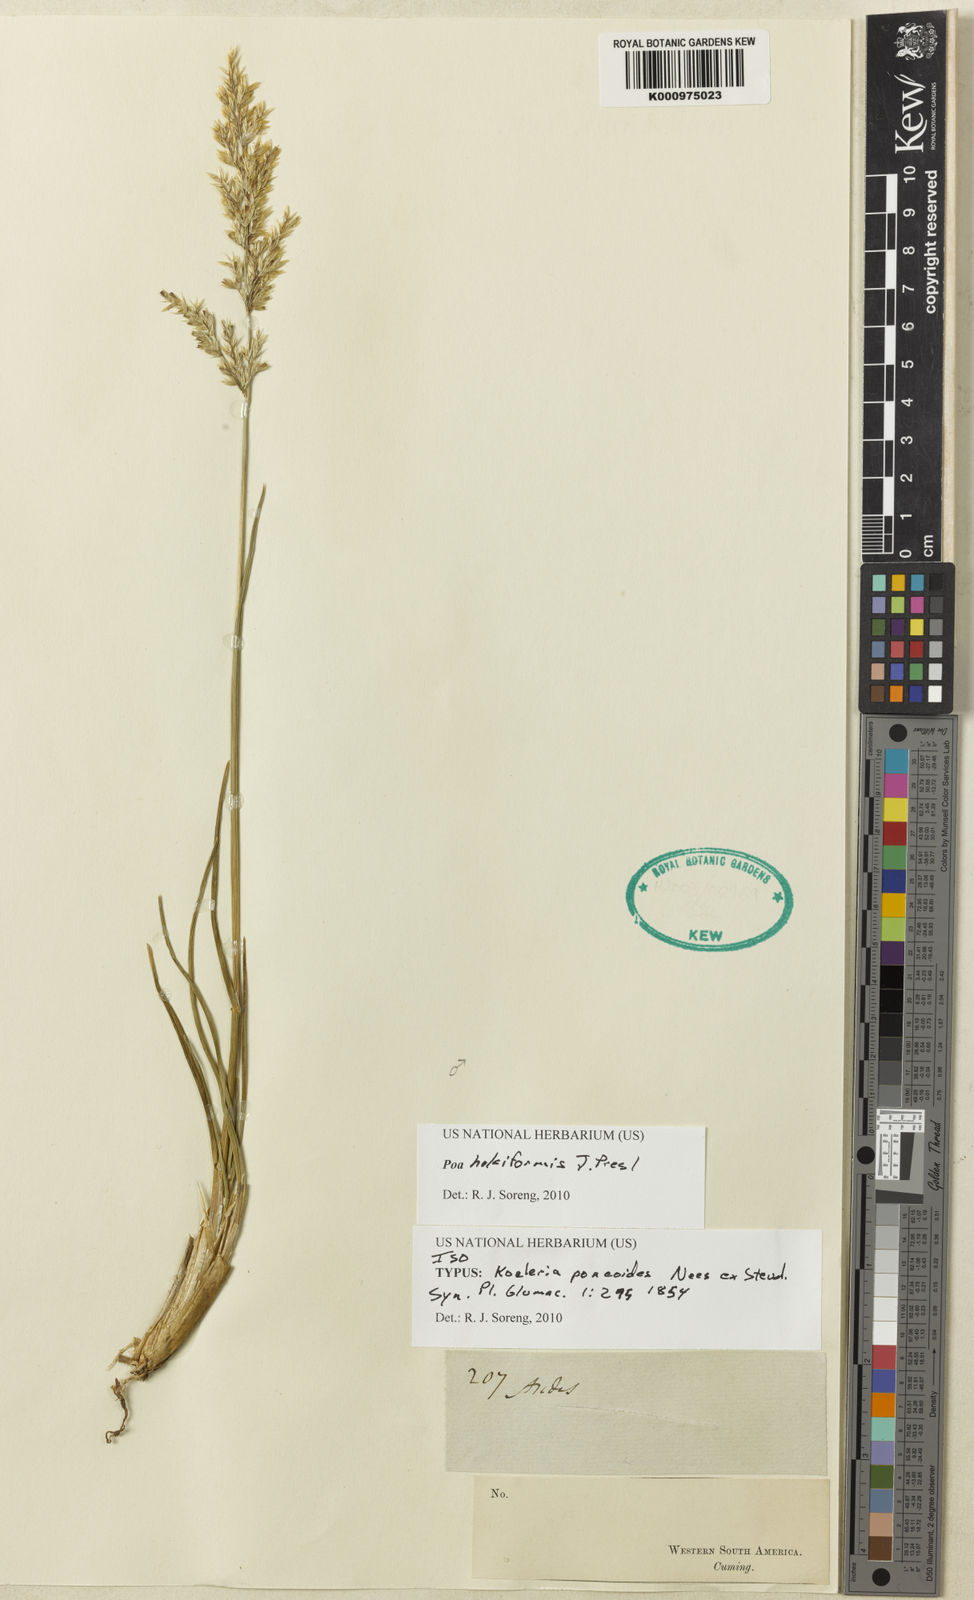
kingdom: Plantae
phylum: Tracheophyta
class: Liliopsida
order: Poales
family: Poaceae
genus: Poa
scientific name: Poa holciformis
